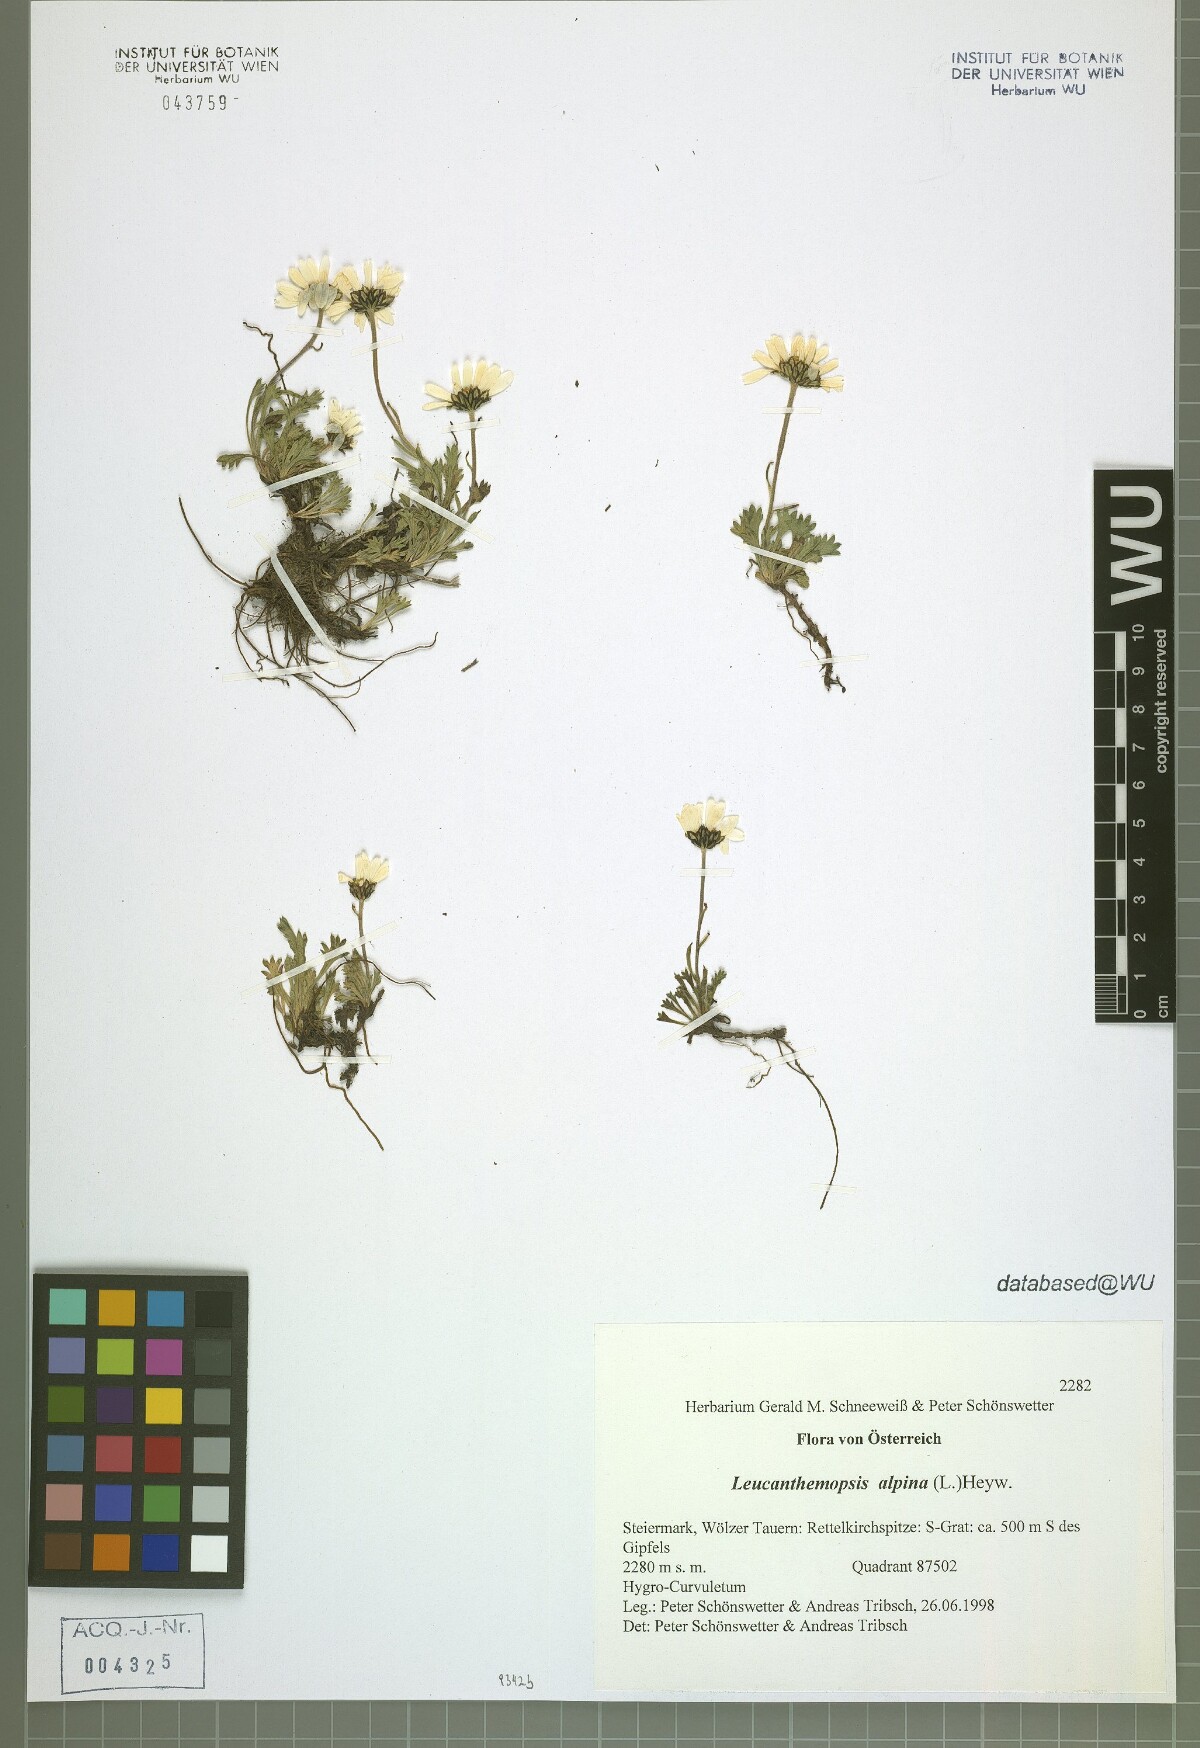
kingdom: Plantae
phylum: Tracheophyta
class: Magnoliopsida
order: Asterales
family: Asteraceae
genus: Leucanthemopsis
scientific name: Leucanthemopsis alpina
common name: Alpine moon daisy
